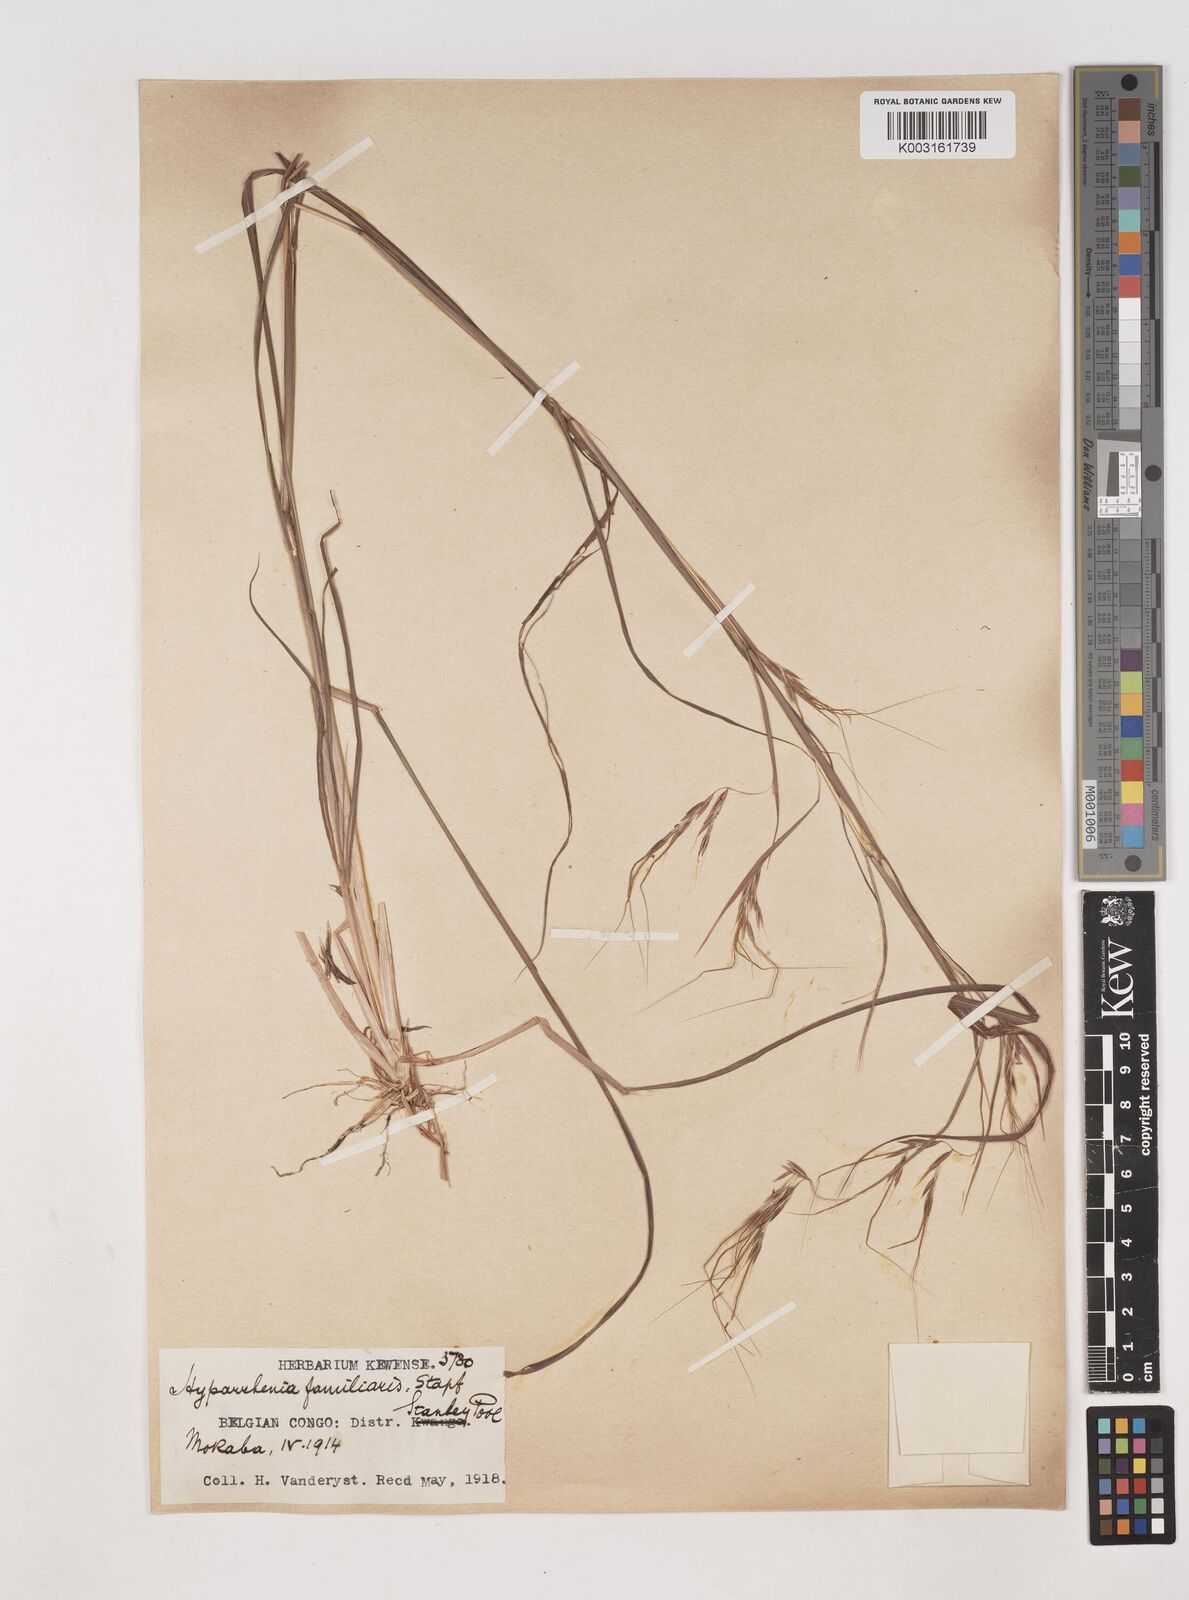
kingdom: Plantae
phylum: Tracheophyta
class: Liliopsida
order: Poales
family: Poaceae
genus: Hyparrhenia
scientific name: Hyparrhenia familiaris
